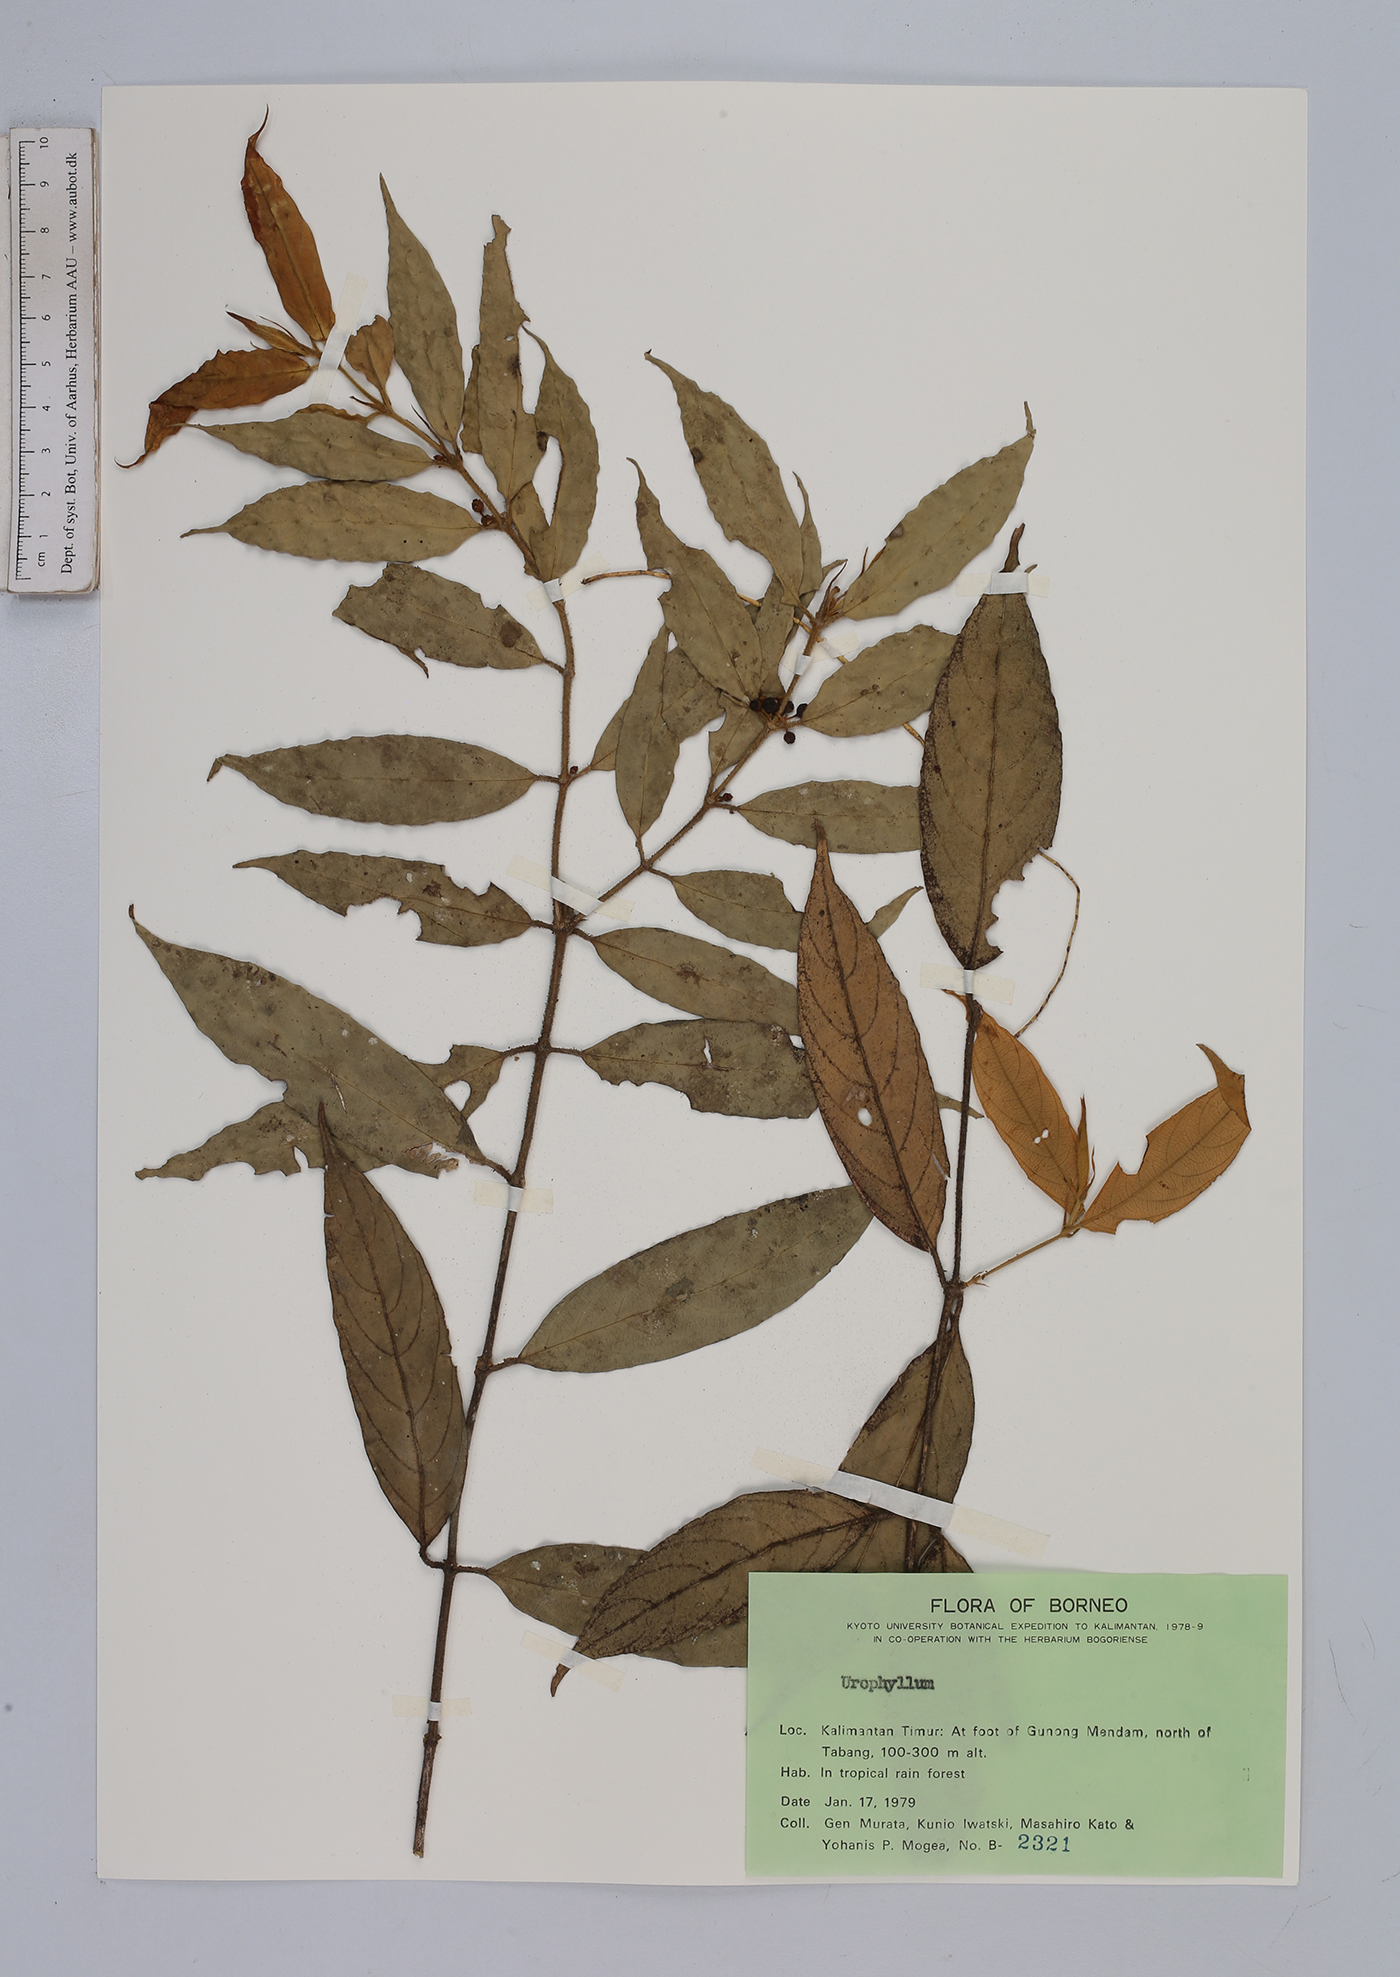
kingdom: Plantae
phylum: Tracheophyta
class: Magnoliopsida
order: Gentianales
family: Rubiaceae
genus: Urophyllum
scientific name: Urophyllum
